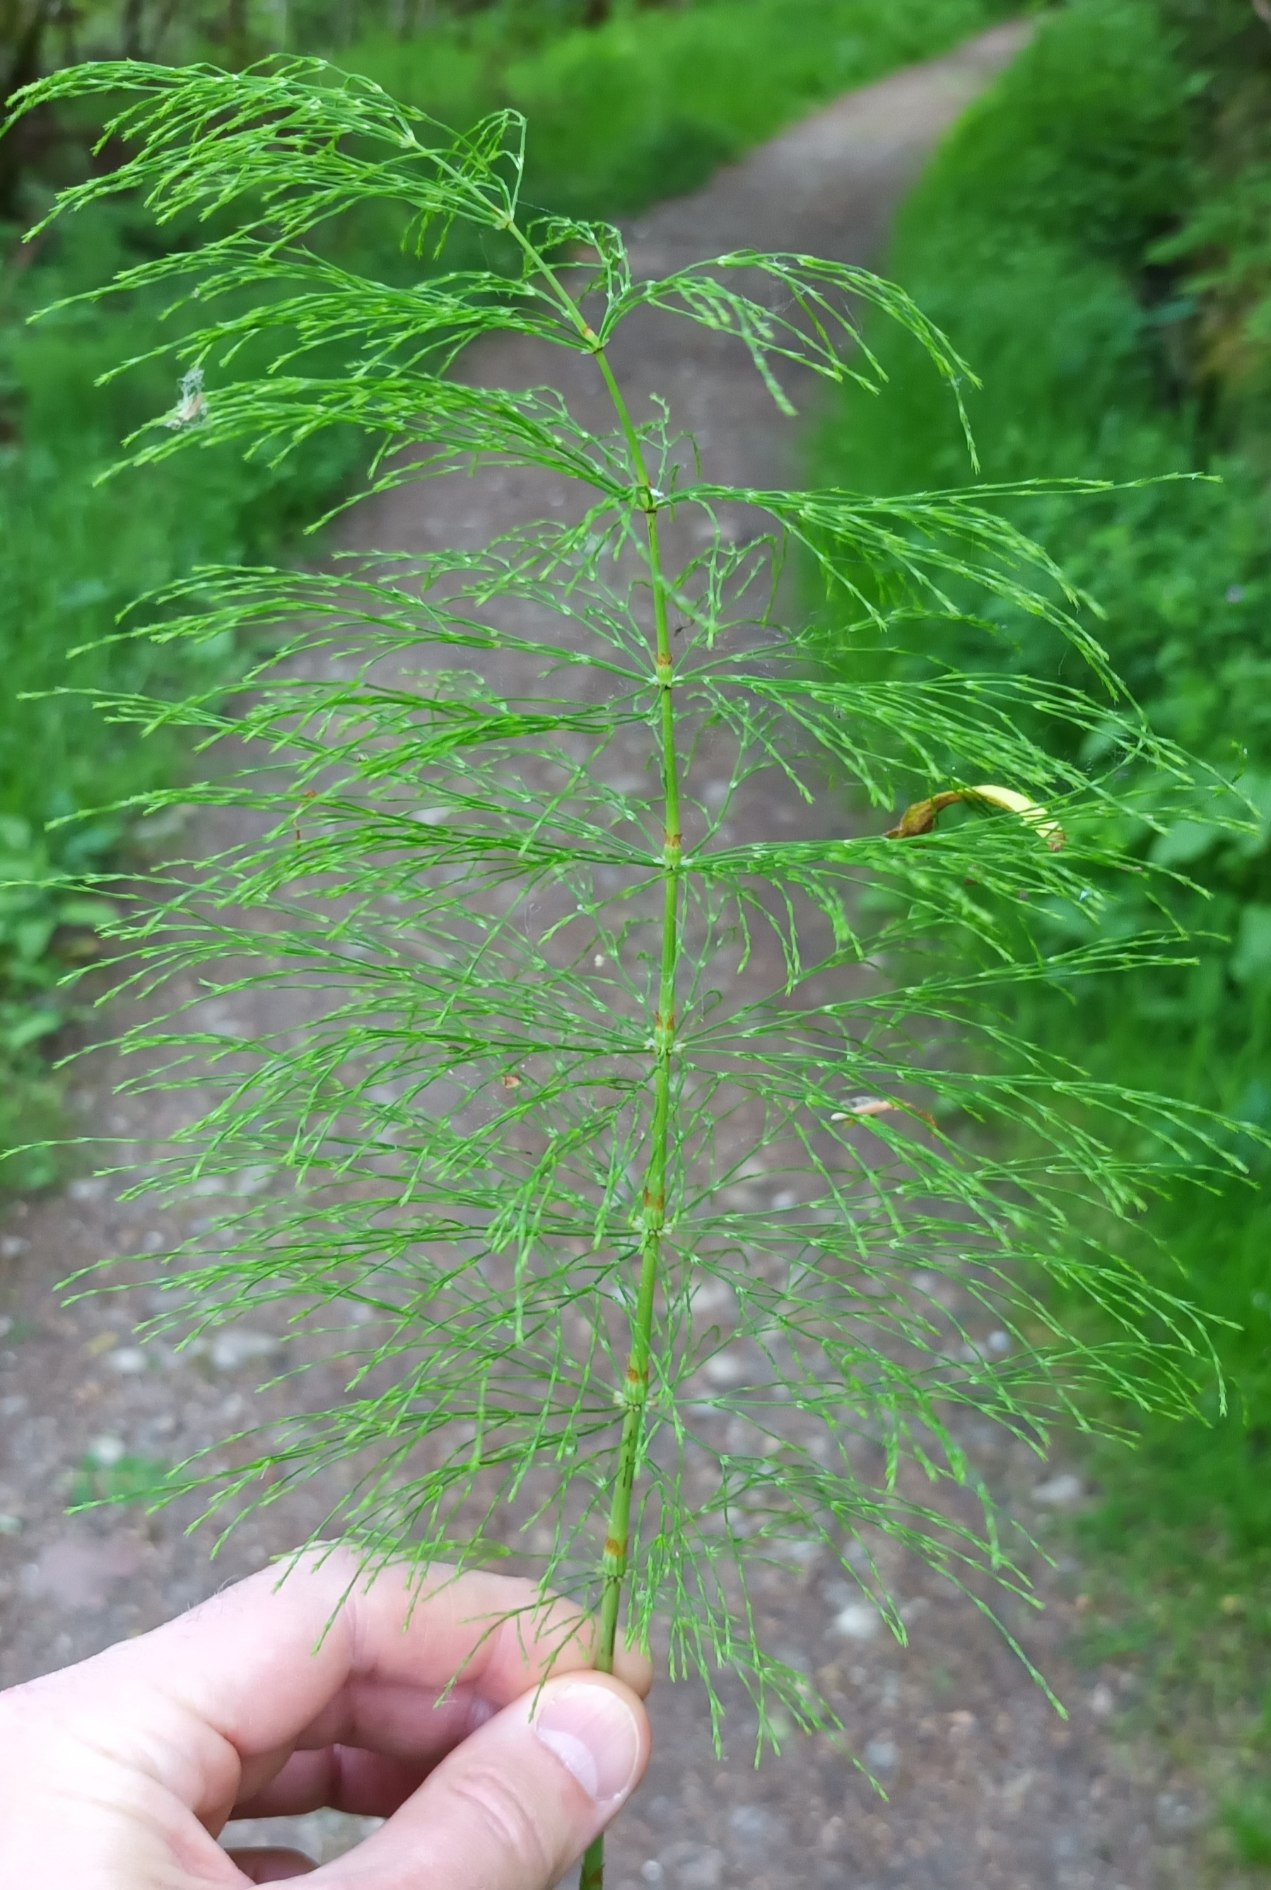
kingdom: Plantae
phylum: Tracheophyta
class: Polypodiopsida
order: Equisetales
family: Equisetaceae
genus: Equisetum
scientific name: Equisetum sylvaticum
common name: Skov-padderok
